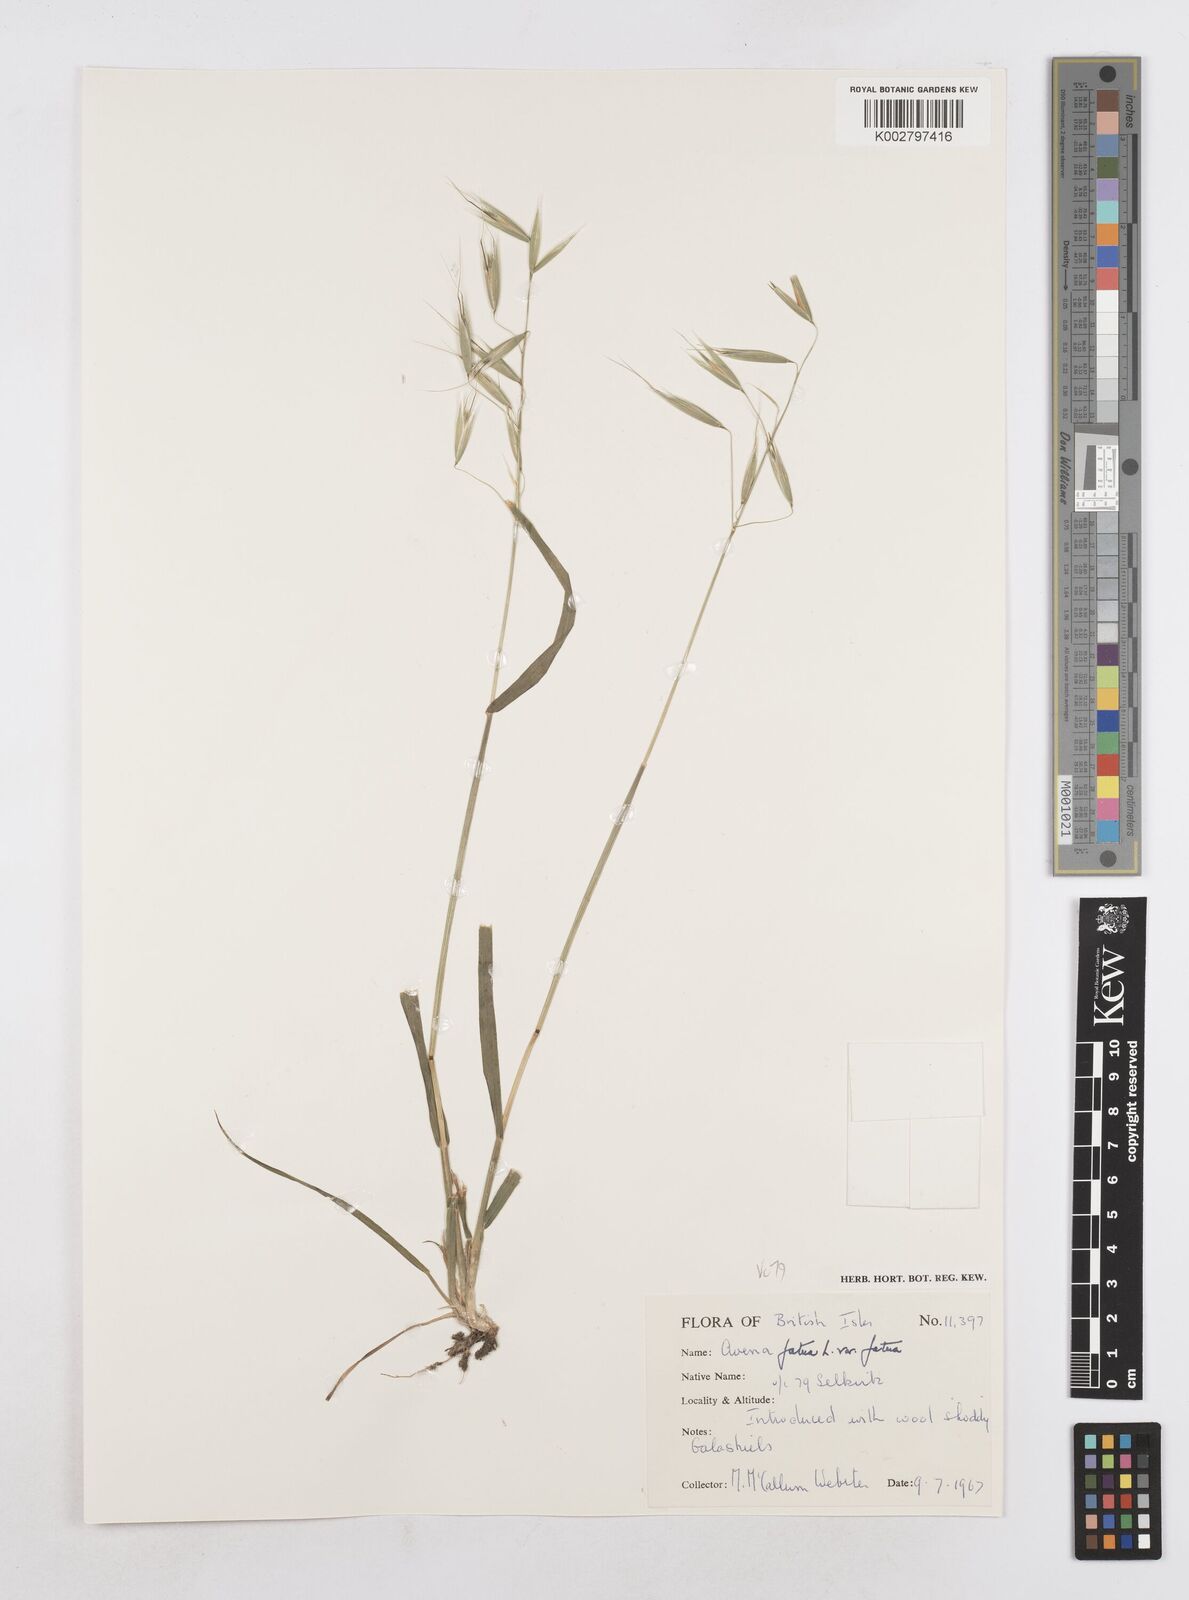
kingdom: Plantae
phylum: Tracheophyta
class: Liliopsida
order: Poales
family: Poaceae
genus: Avena
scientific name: Avena fatua
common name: Wild oat
